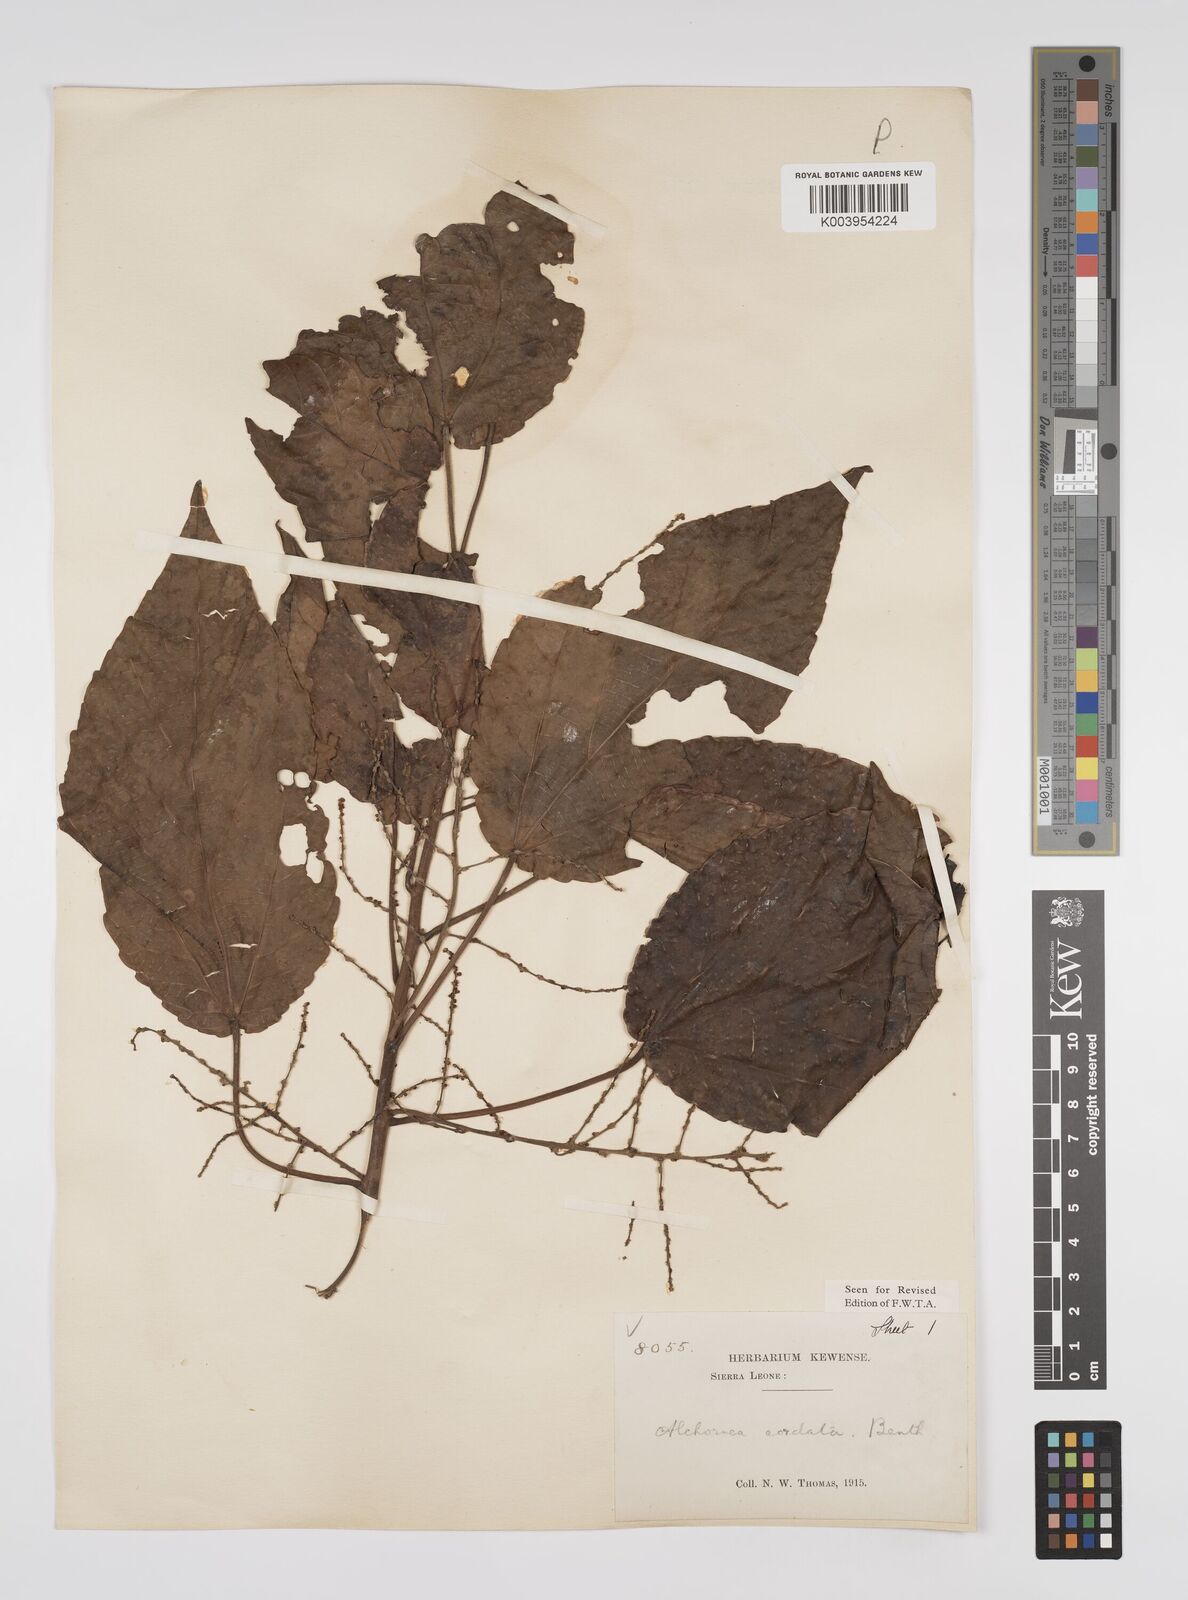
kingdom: Plantae
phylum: Tracheophyta
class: Magnoliopsida
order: Malpighiales
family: Euphorbiaceae
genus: Alchornea
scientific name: Alchornea cordifolia
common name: Christmasbush
